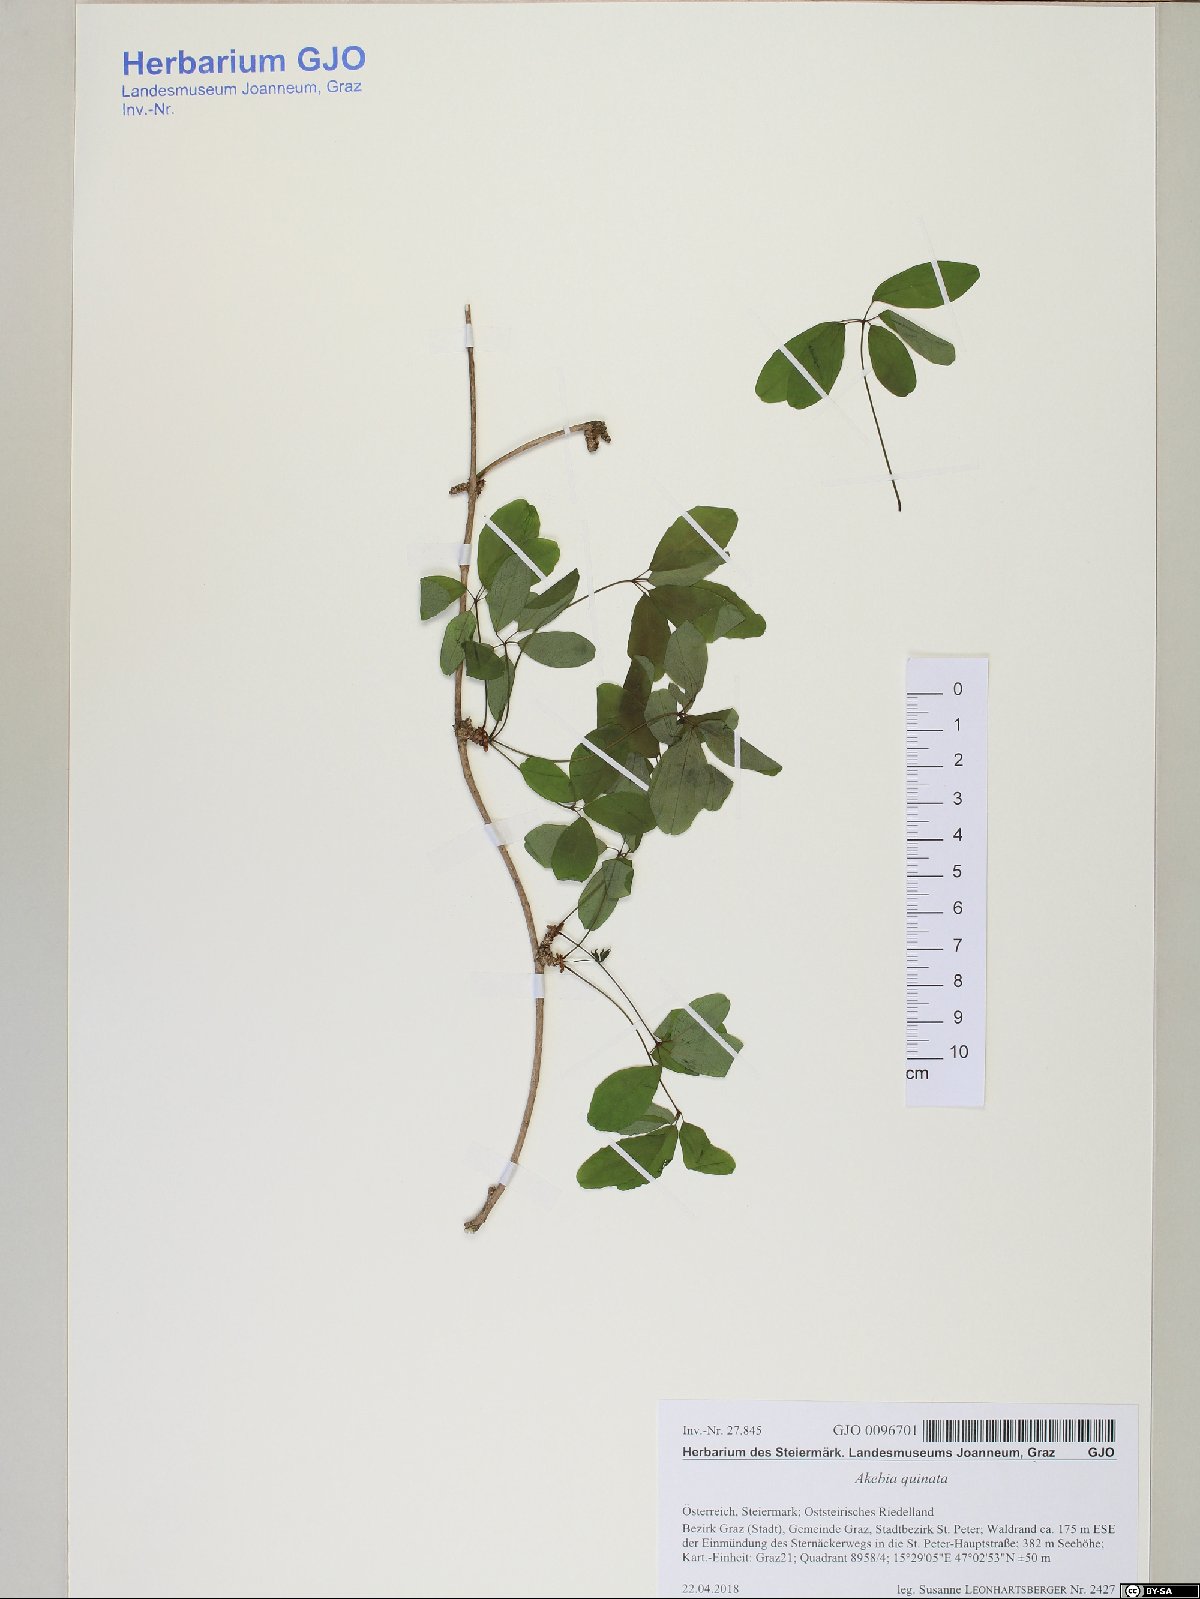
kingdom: Plantae
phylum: Tracheophyta
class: Magnoliopsida
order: Ranunculales
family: Lardizabalaceae
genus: Akebia
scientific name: Akebia quinata
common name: Five-leaf akebia
